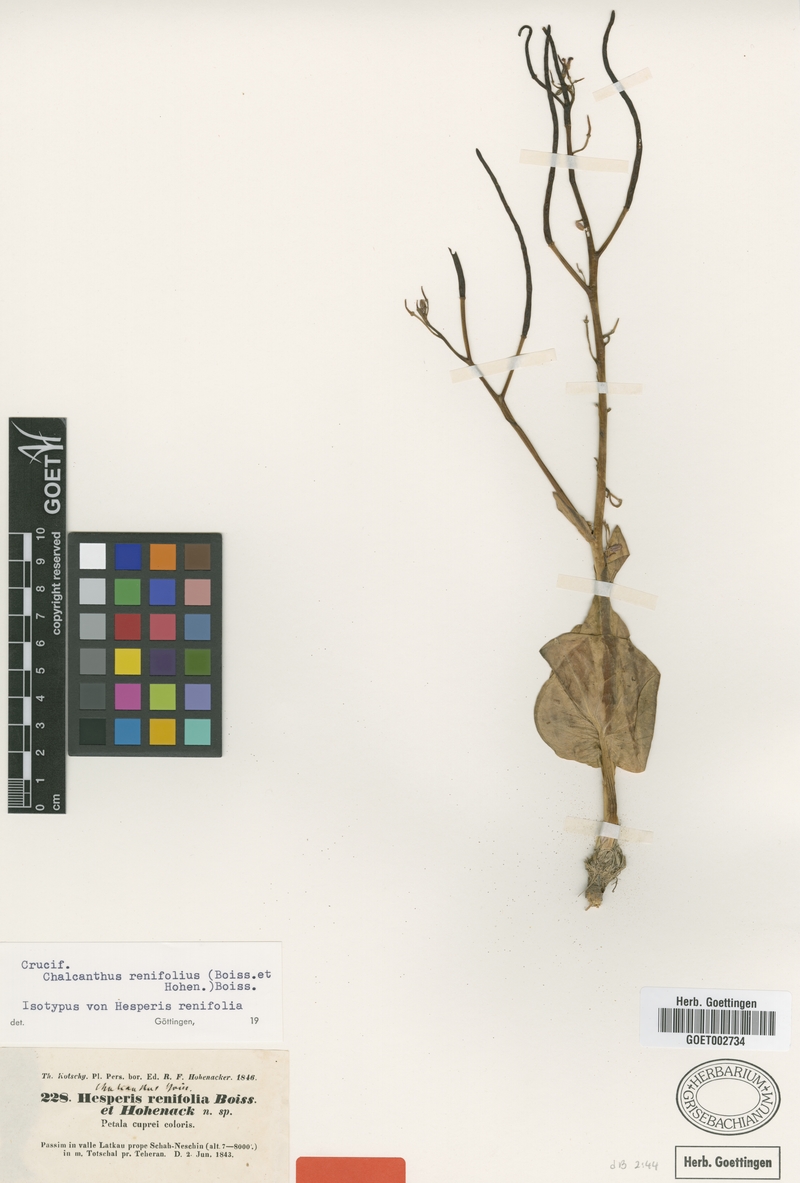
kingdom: Plantae
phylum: Tracheophyta
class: Magnoliopsida
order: Brassicales
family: Brassicaceae
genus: Eutrema
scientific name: Eutrema renifolium
